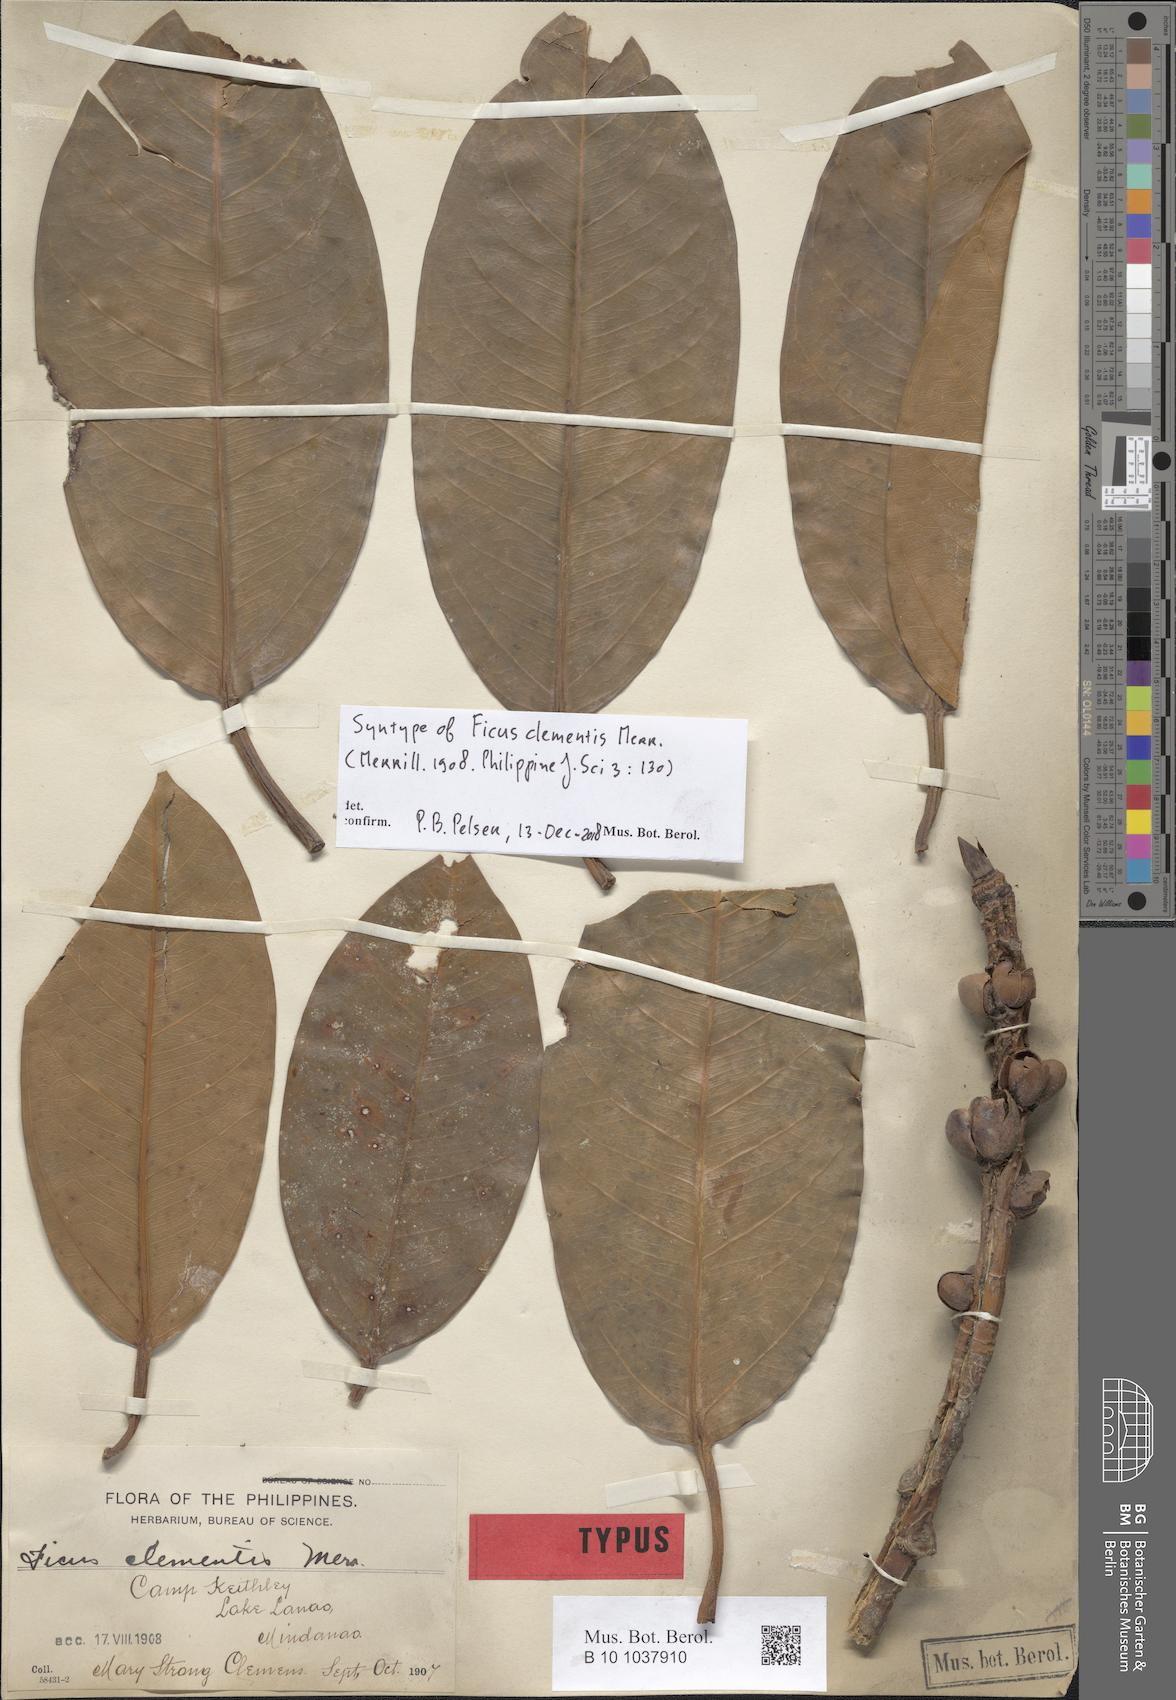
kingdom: Plantae
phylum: Tracheophyta
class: Magnoliopsida
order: Rosales
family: Moraceae
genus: Ficus
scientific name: Ficus crassiramea
